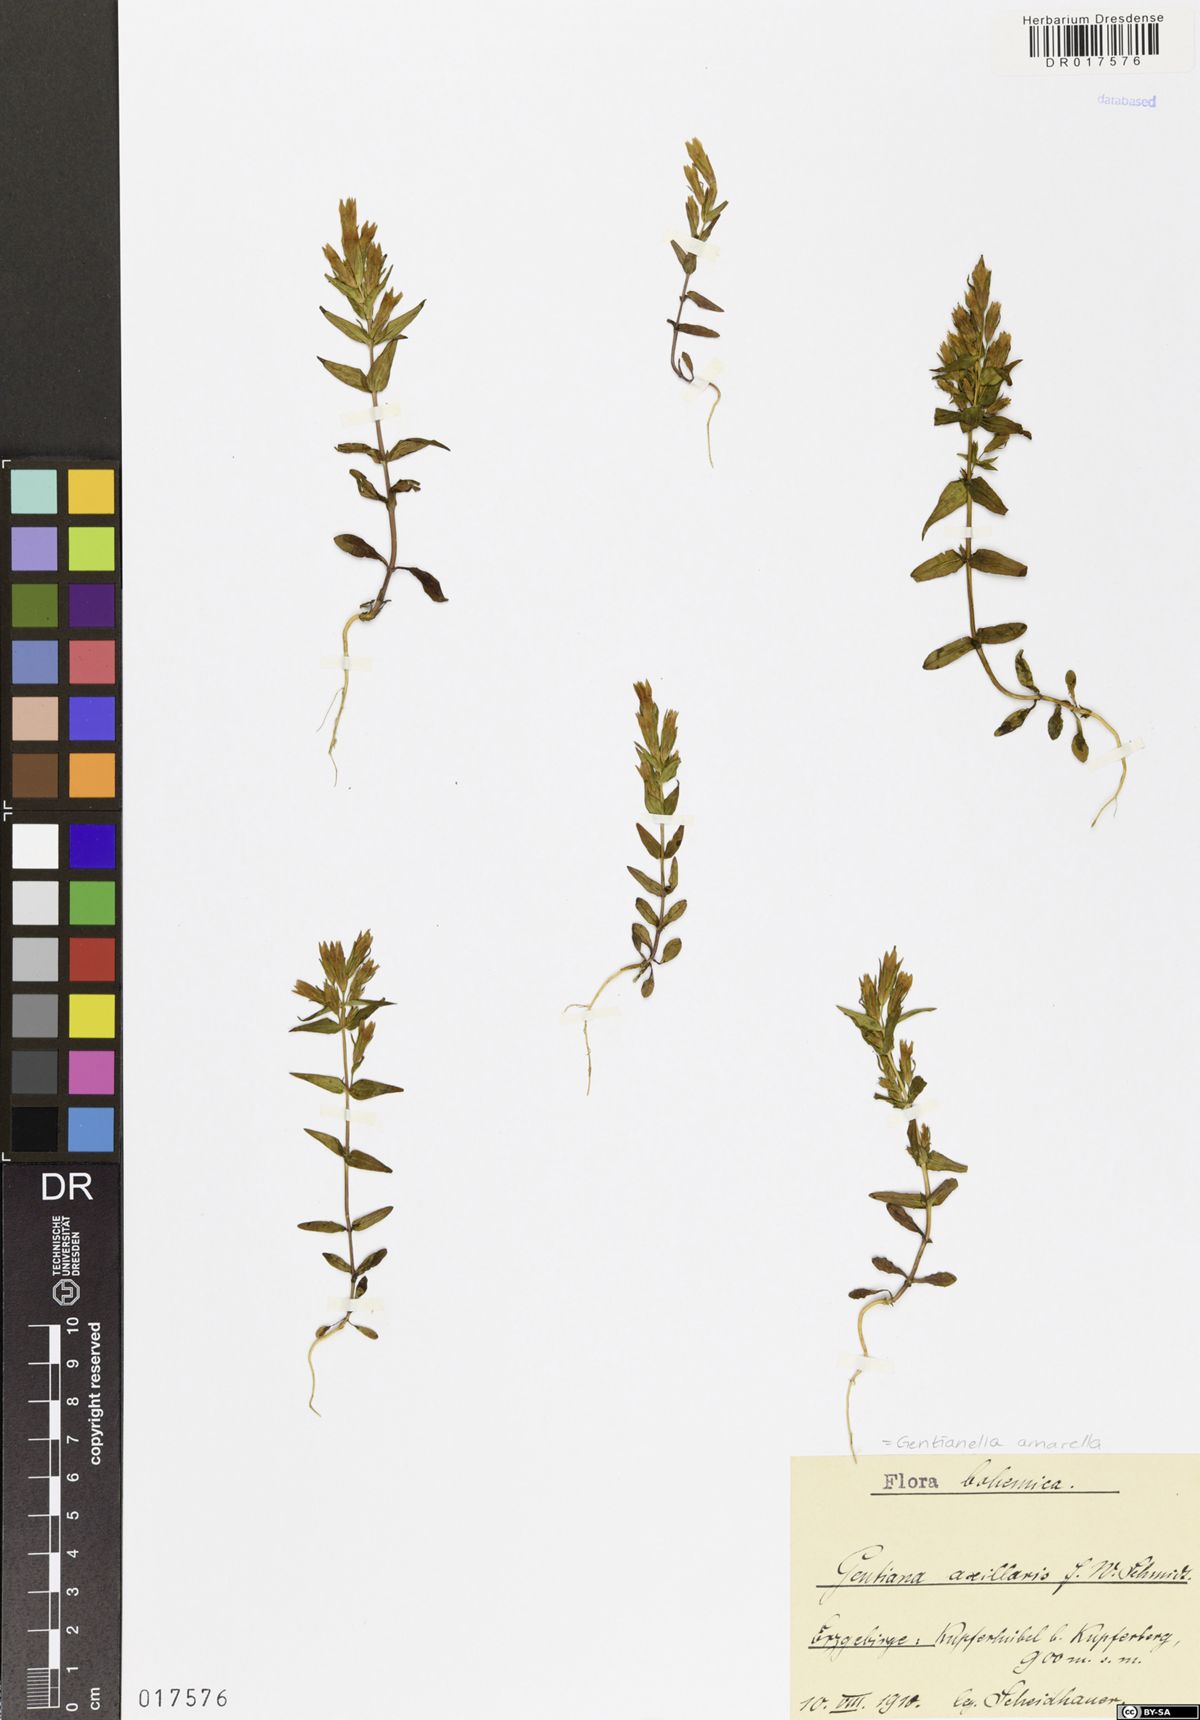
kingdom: Plantae
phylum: Tracheophyta
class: Magnoliopsida
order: Gentianales
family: Gentianaceae
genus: Gentianella
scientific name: Gentianella amarella
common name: Autumn gentian
